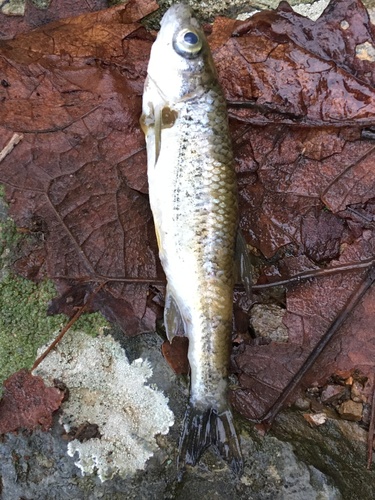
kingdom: Animalia
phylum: Chordata
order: Cypriniformes
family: Cyprinidae
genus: Squalius
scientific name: Squalius alburnoides
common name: Iberian-roach
